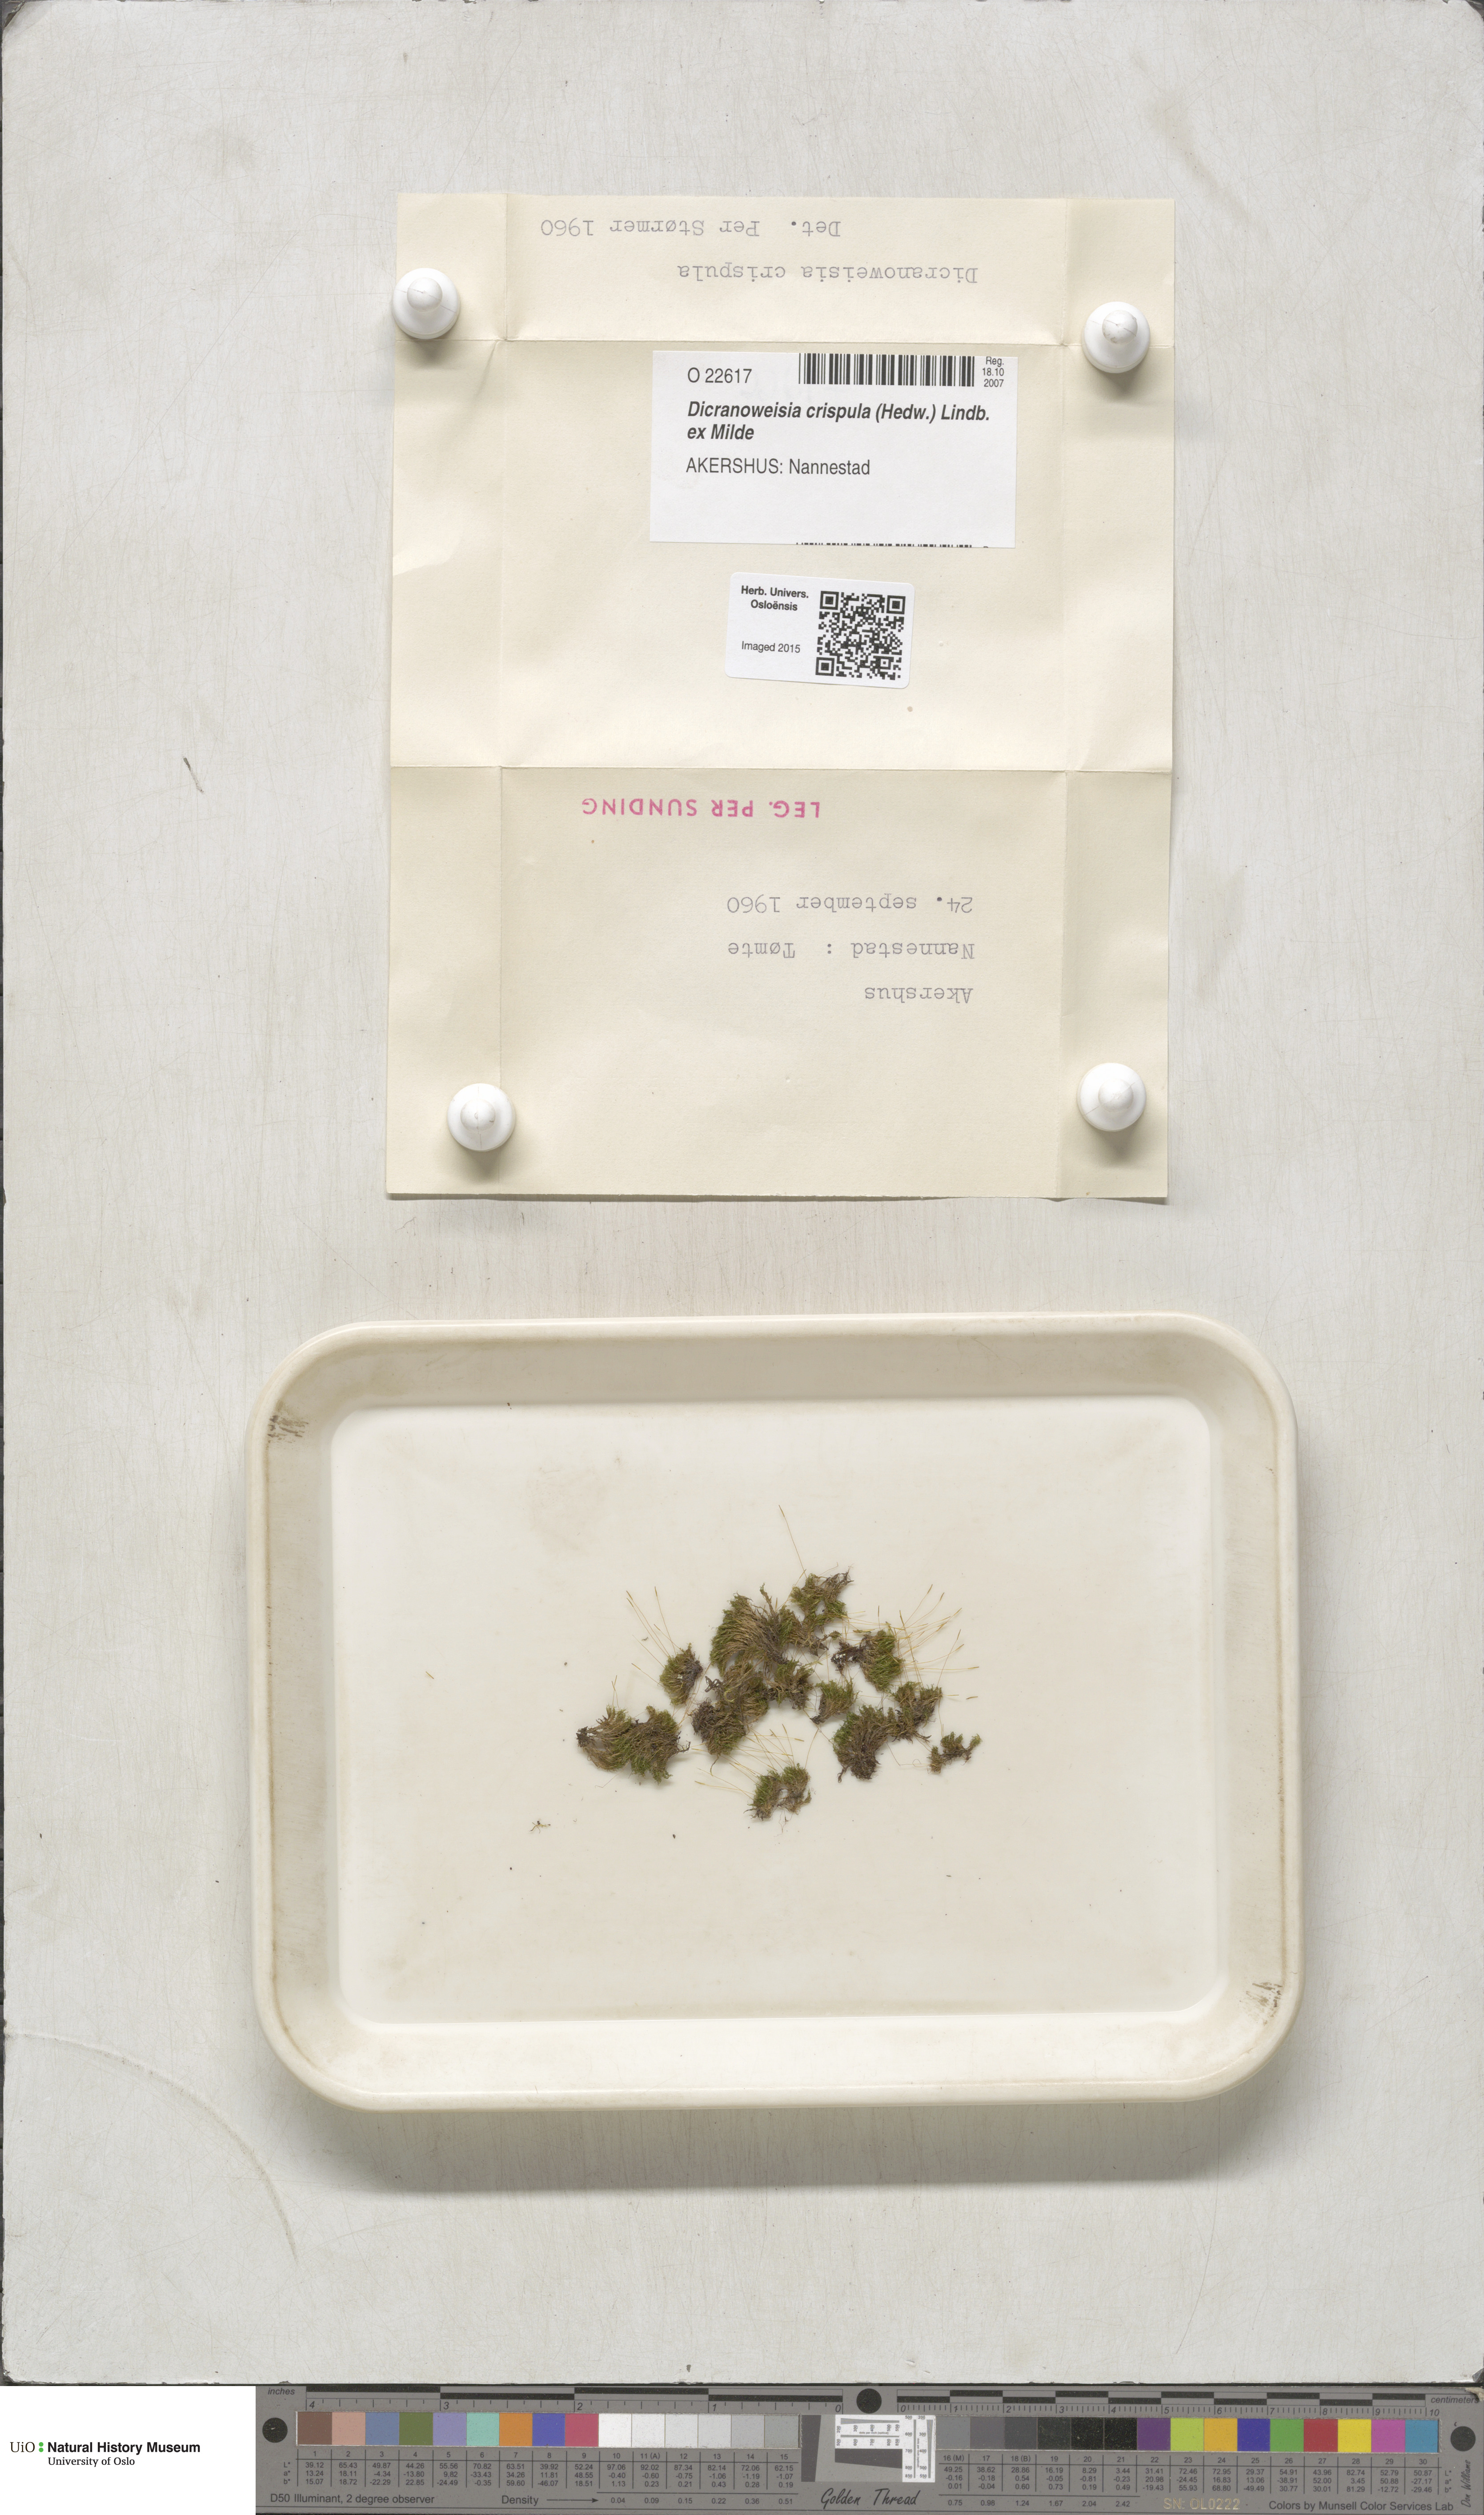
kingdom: Plantae
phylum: Bryophyta
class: Bryopsida
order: Scouleriales
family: Hymenolomataceae
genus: Hymenoloma
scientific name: Hymenoloma crispulum
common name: Mountain pincushion
